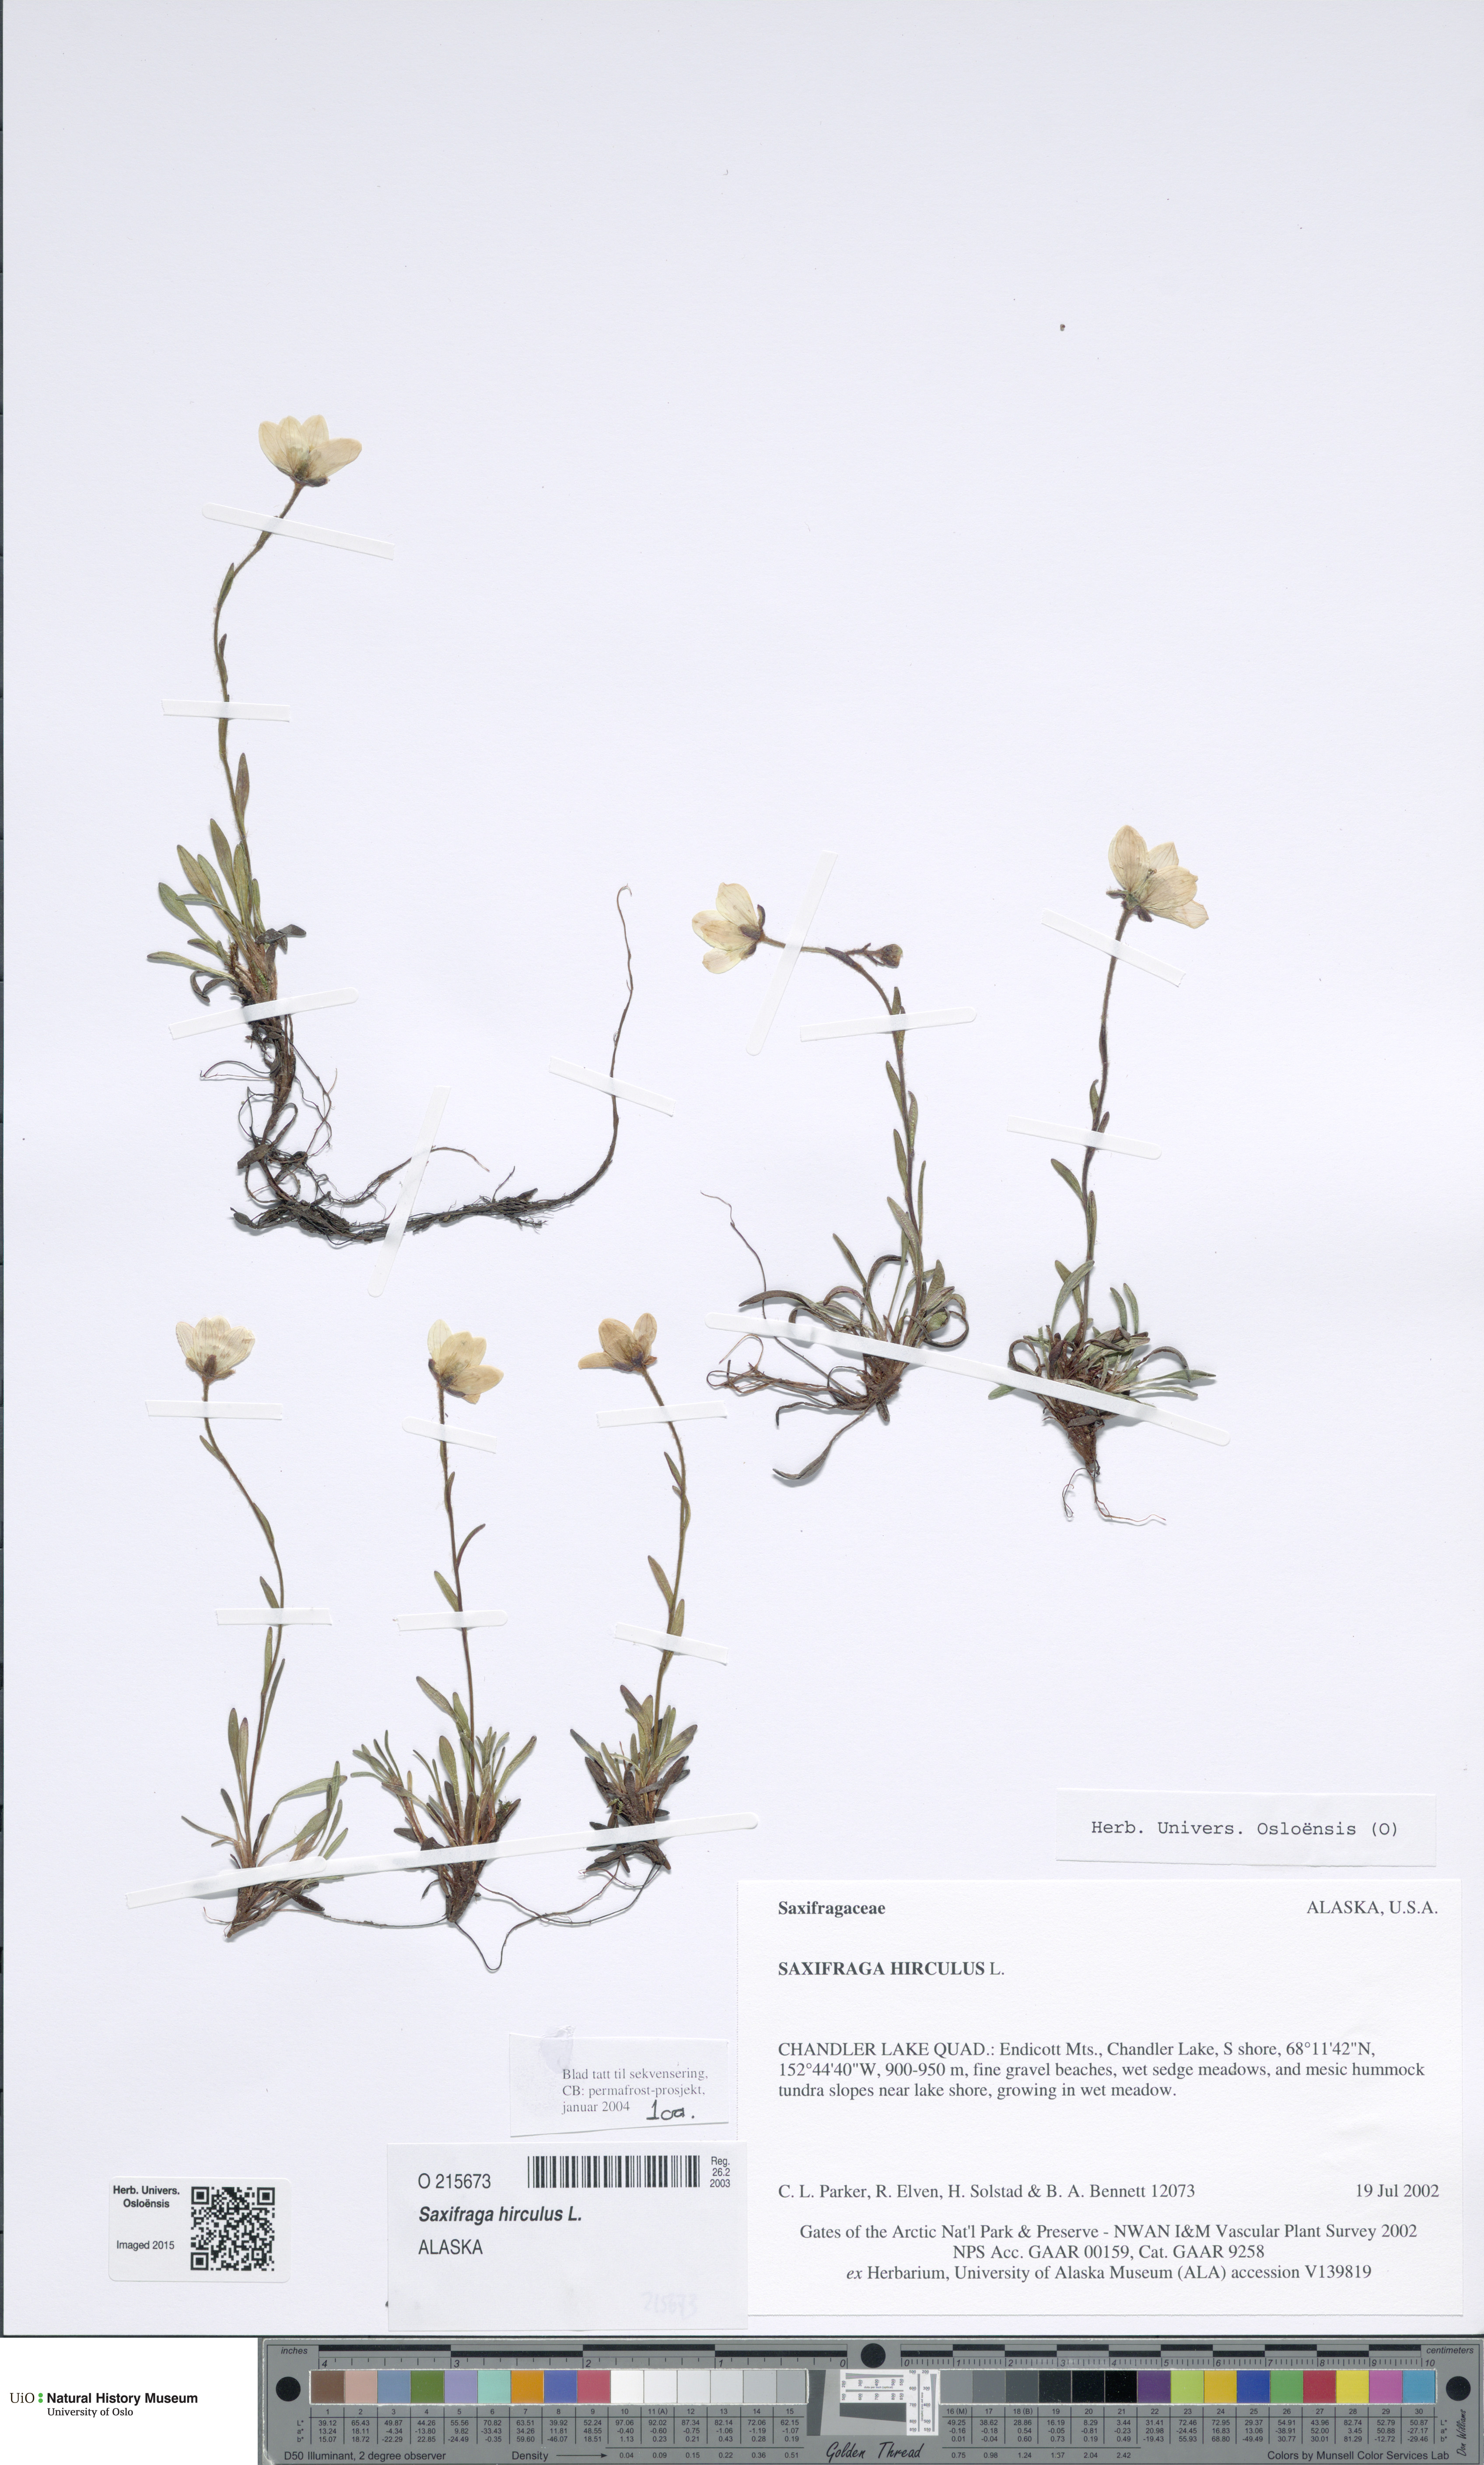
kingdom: Plantae
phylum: Tracheophyta
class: Magnoliopsida
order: Saxifragales
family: Saxifragaceae
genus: Saxifraga
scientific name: Saxifraga hirculus
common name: Yellow marsh saxifrage
